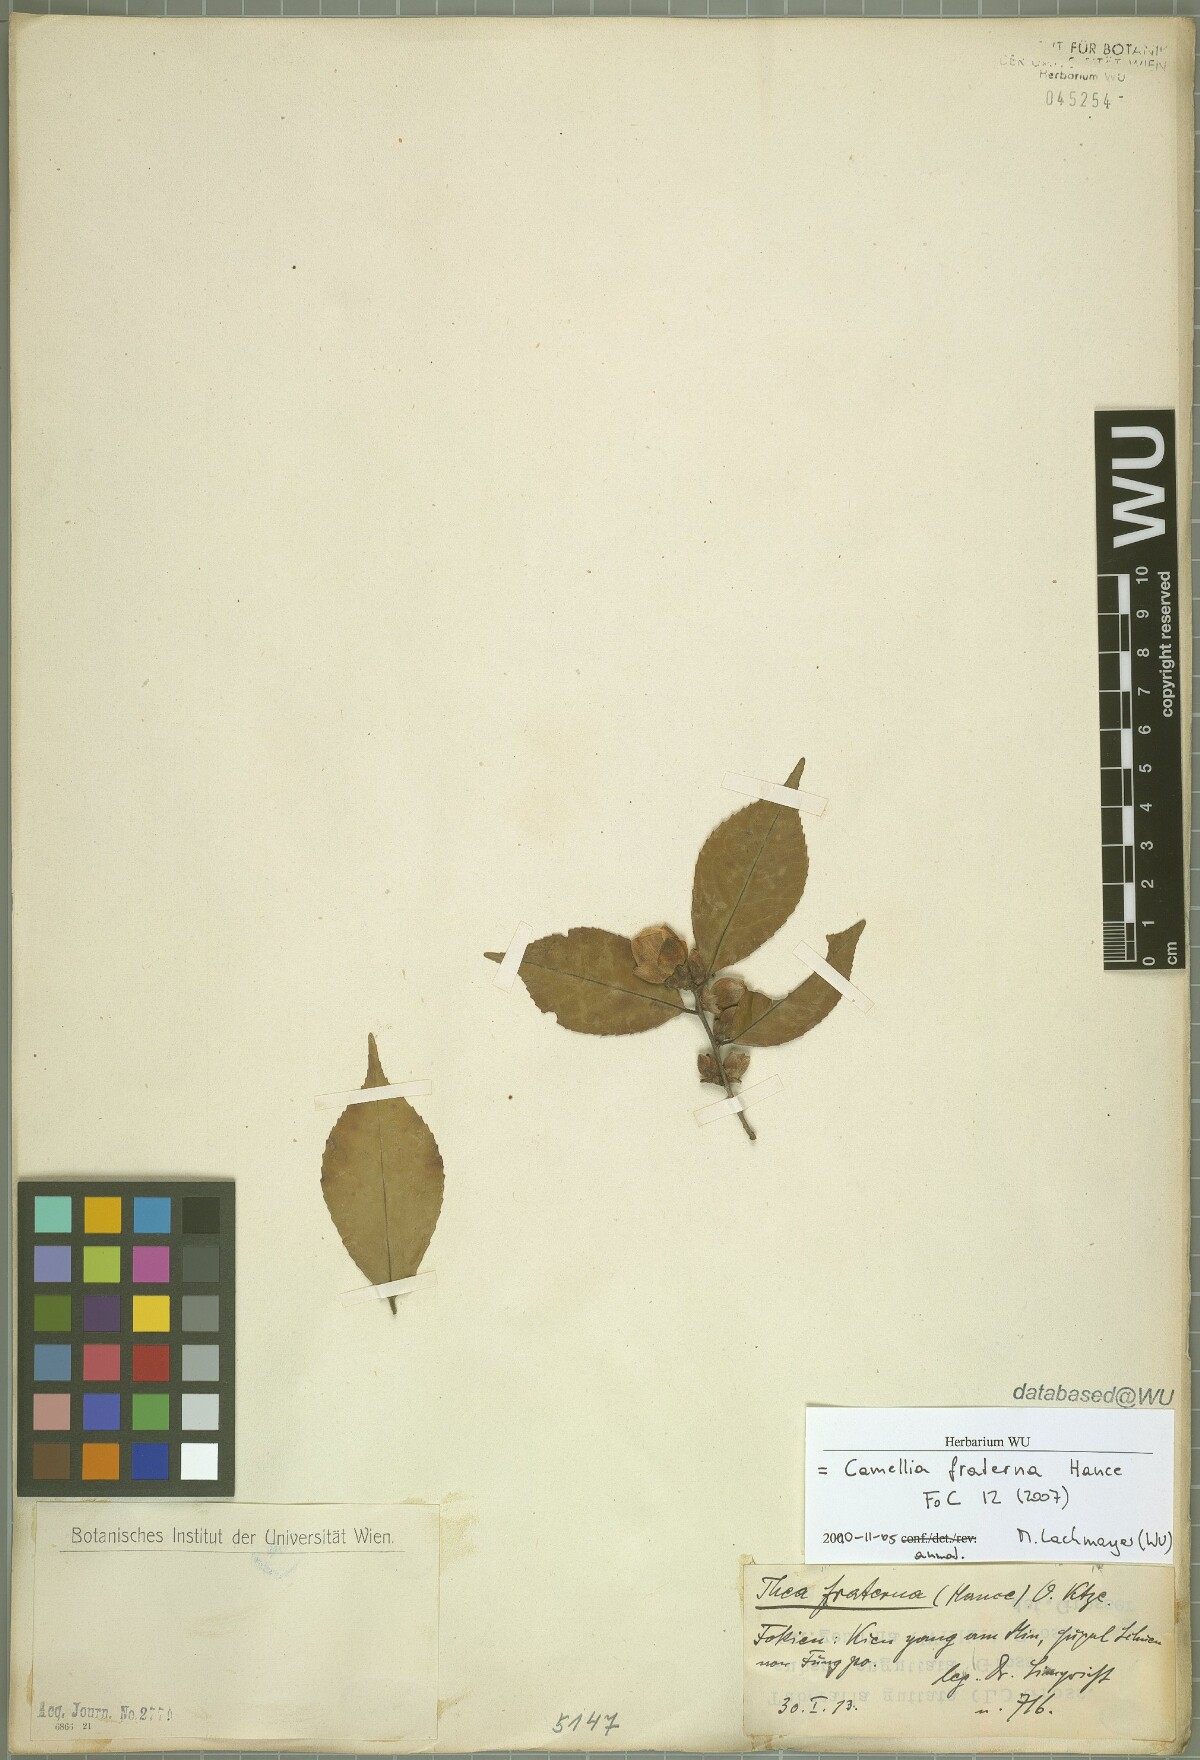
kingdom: Plantae
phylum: Tracheophyta
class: Magnoliopsida
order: Ericales
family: Theaceae
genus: Camellia
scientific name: Camellia fraterna
